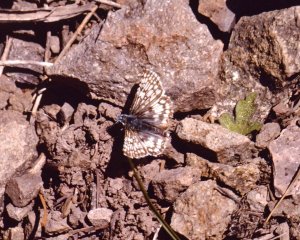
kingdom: Animalia
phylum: Arthropoda
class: Insecta
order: Lepidoptera
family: Hesperiidae
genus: Pyrgus
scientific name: Pyrgus communis
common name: Common Checkered-Skipper
